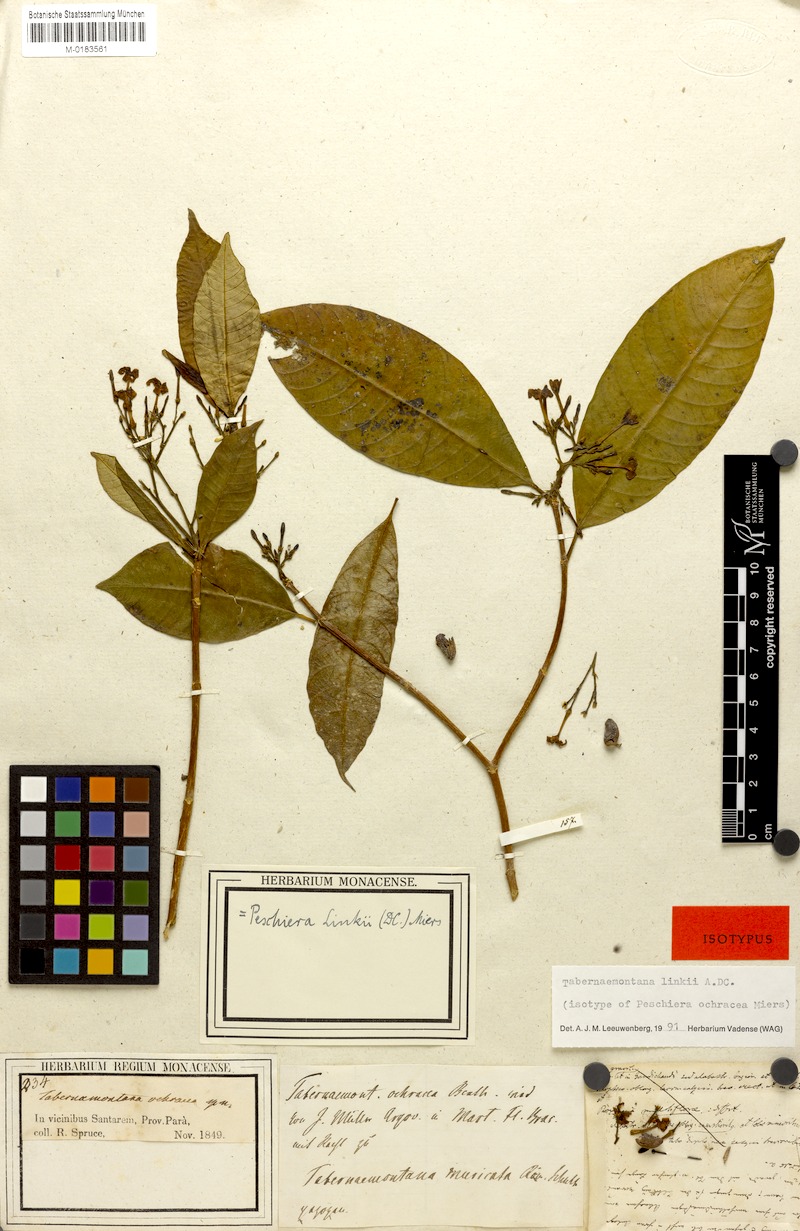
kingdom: Plantae
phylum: Tracheophyta
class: Magnoliopsida
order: Gentianales
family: Apocynaceae
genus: Tabernaemontana
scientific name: Tabernaemontana linkii
